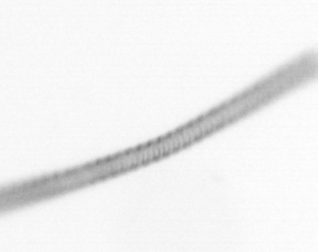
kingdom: Chromista
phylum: Ochrophyta
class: Bacillariophyceae
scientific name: Bacillariophyceae
